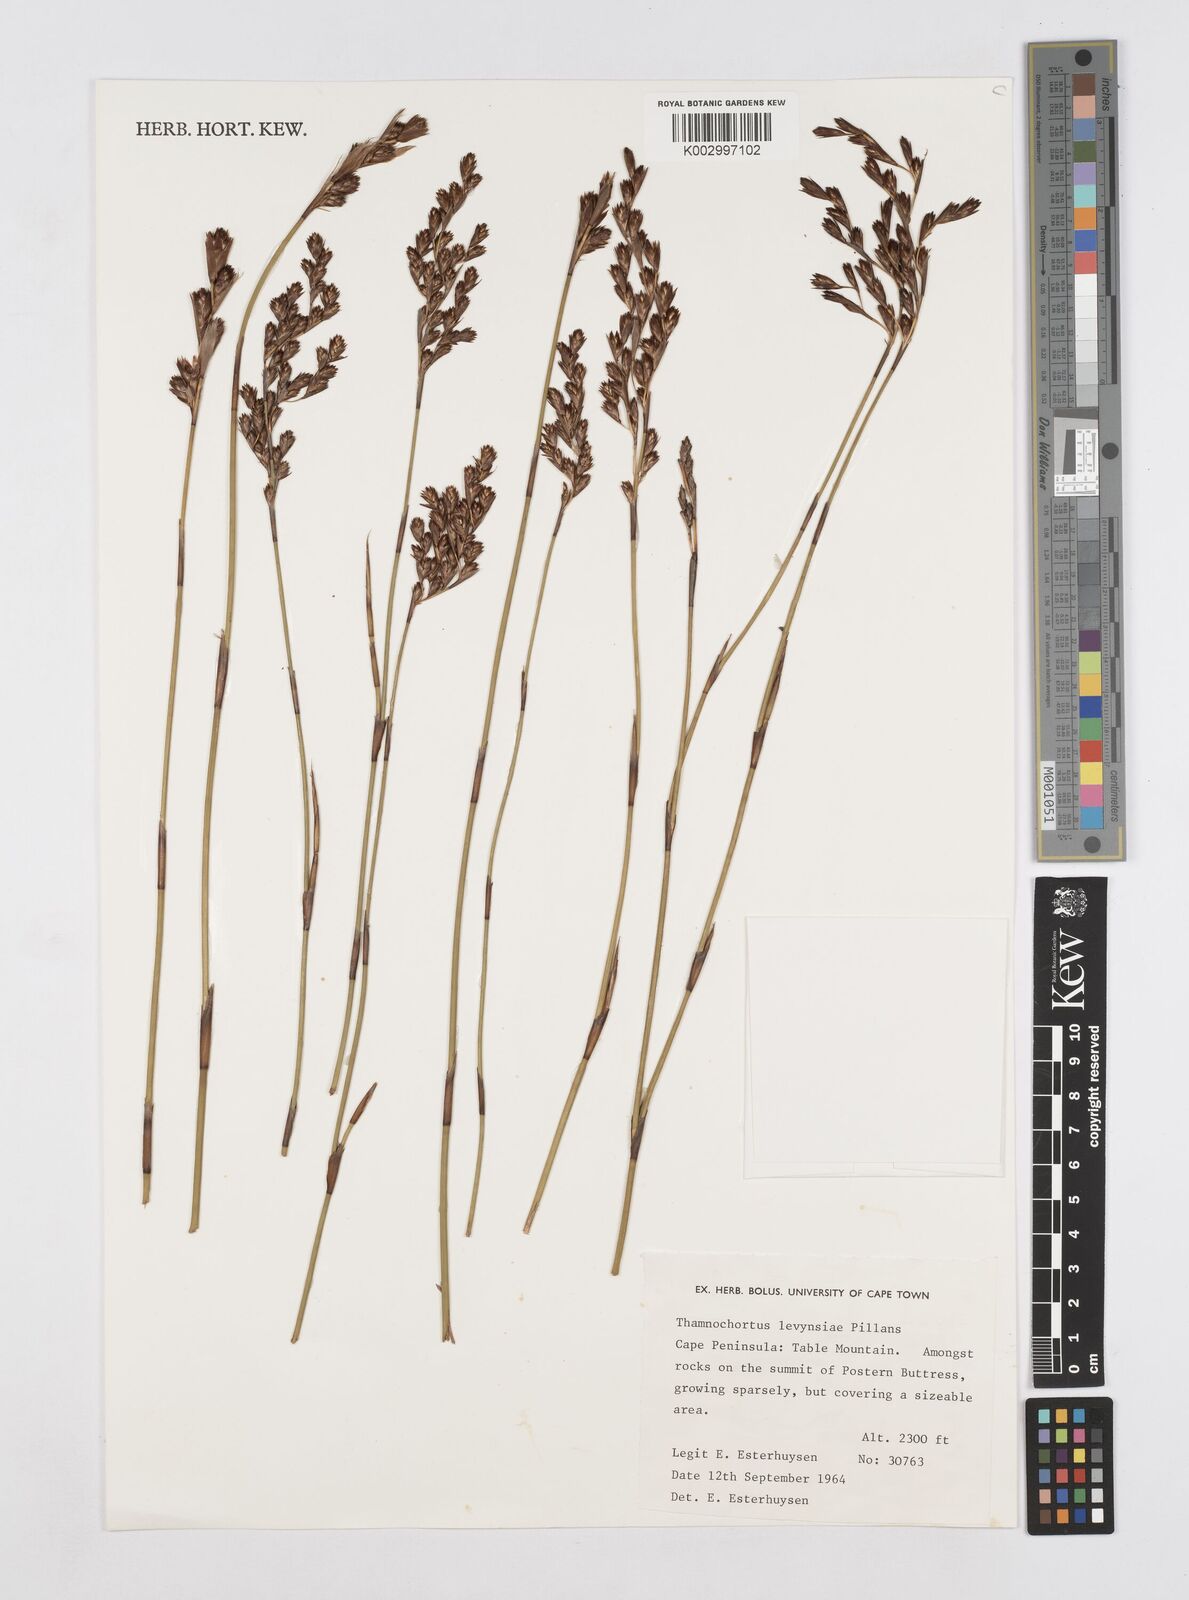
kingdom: Plantae
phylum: Tracheophyta
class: Liliopsida
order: Poales
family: Restionaceae
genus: Thamnochortus
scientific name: Thamnochortus levynsiae
